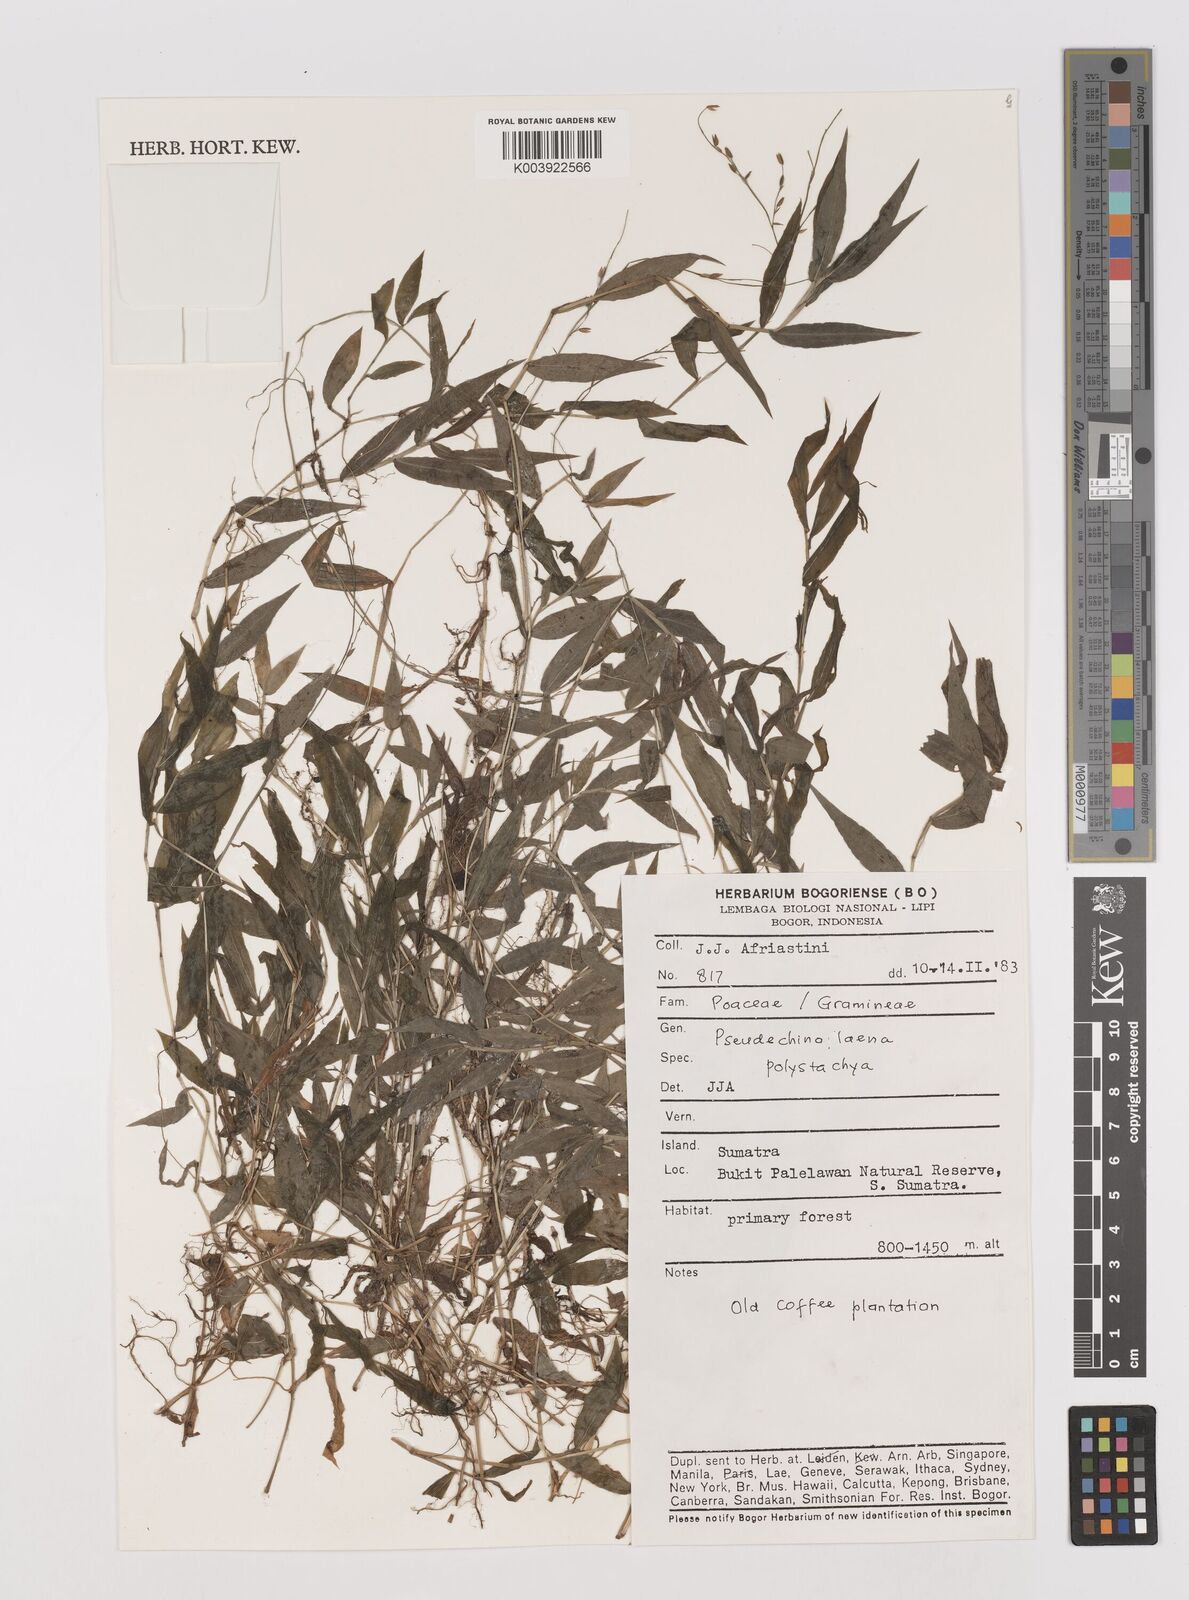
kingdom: Plantae
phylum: Tracheophyta
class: Liliopsida
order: Poales
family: Poaceae
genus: Pseudechinolaena
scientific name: Pseudechinolaena polystachya
